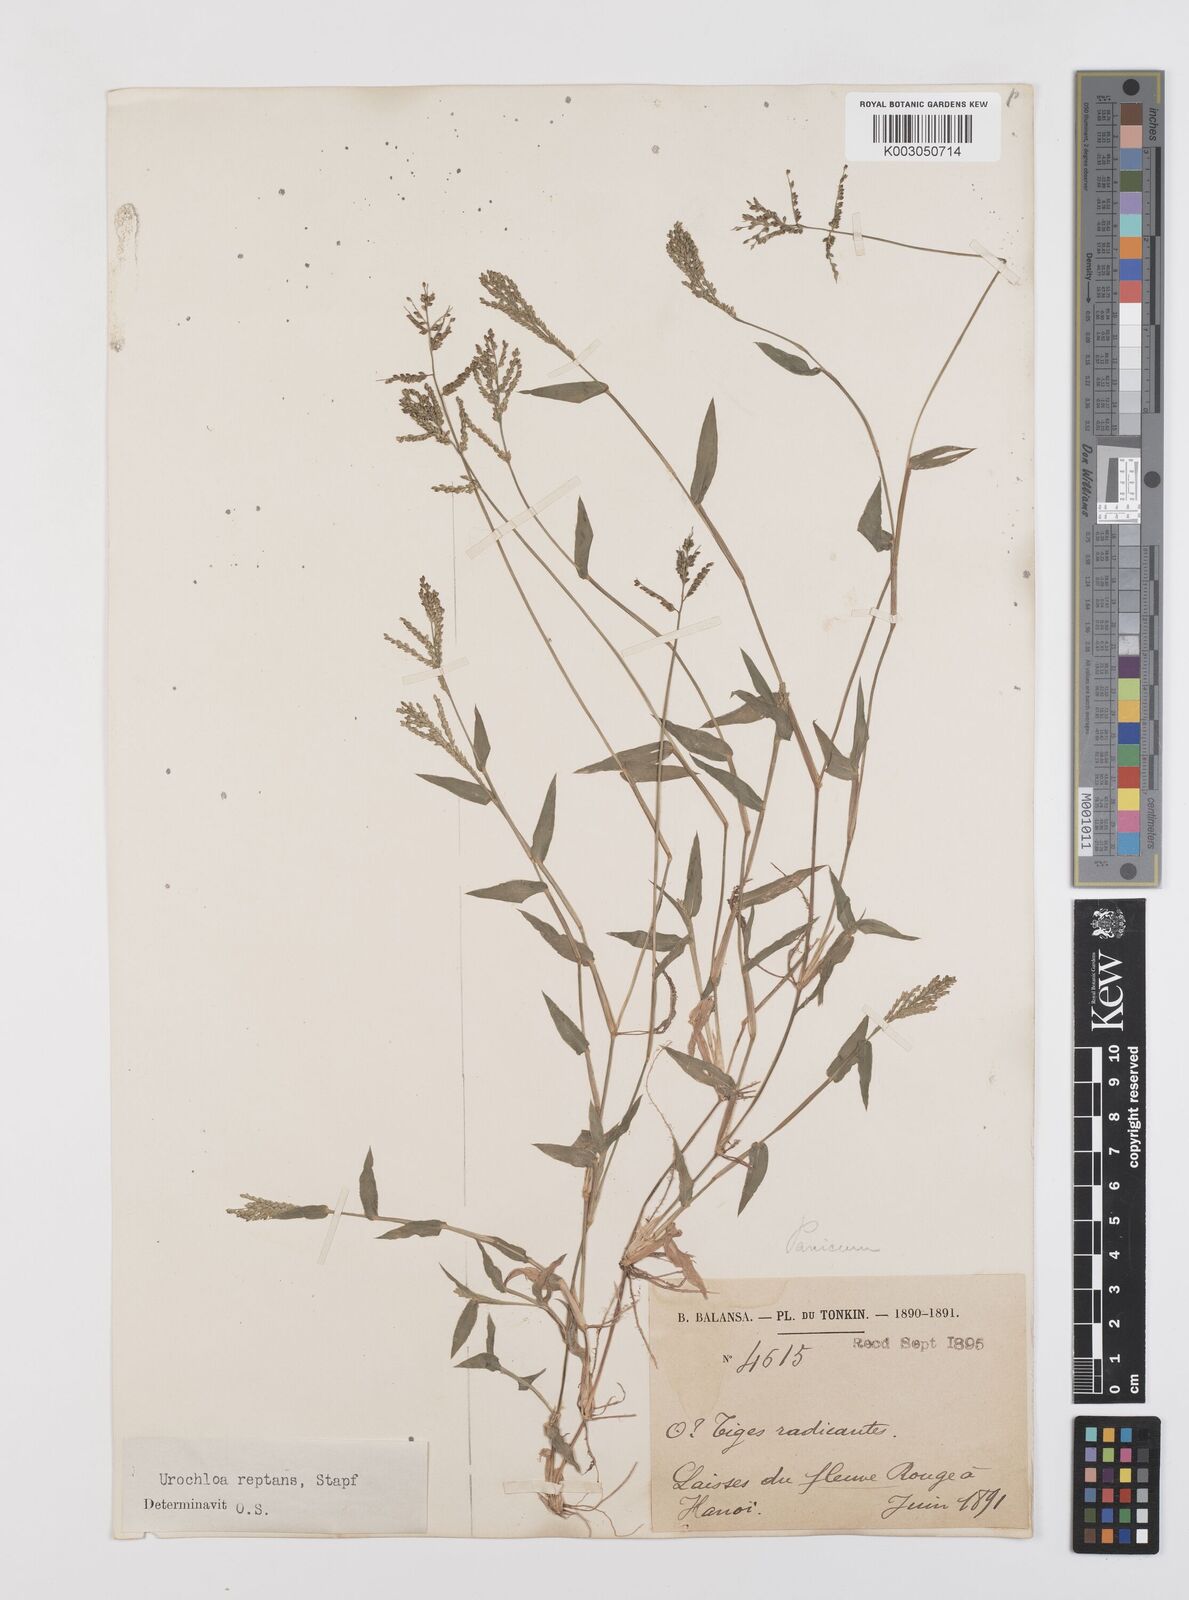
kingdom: Plantae
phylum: Tracheophyta
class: Liliopsida
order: Poales
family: Poaceae
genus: Urochloa
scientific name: Urochloa reptans
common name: Sprawling signalgrass
